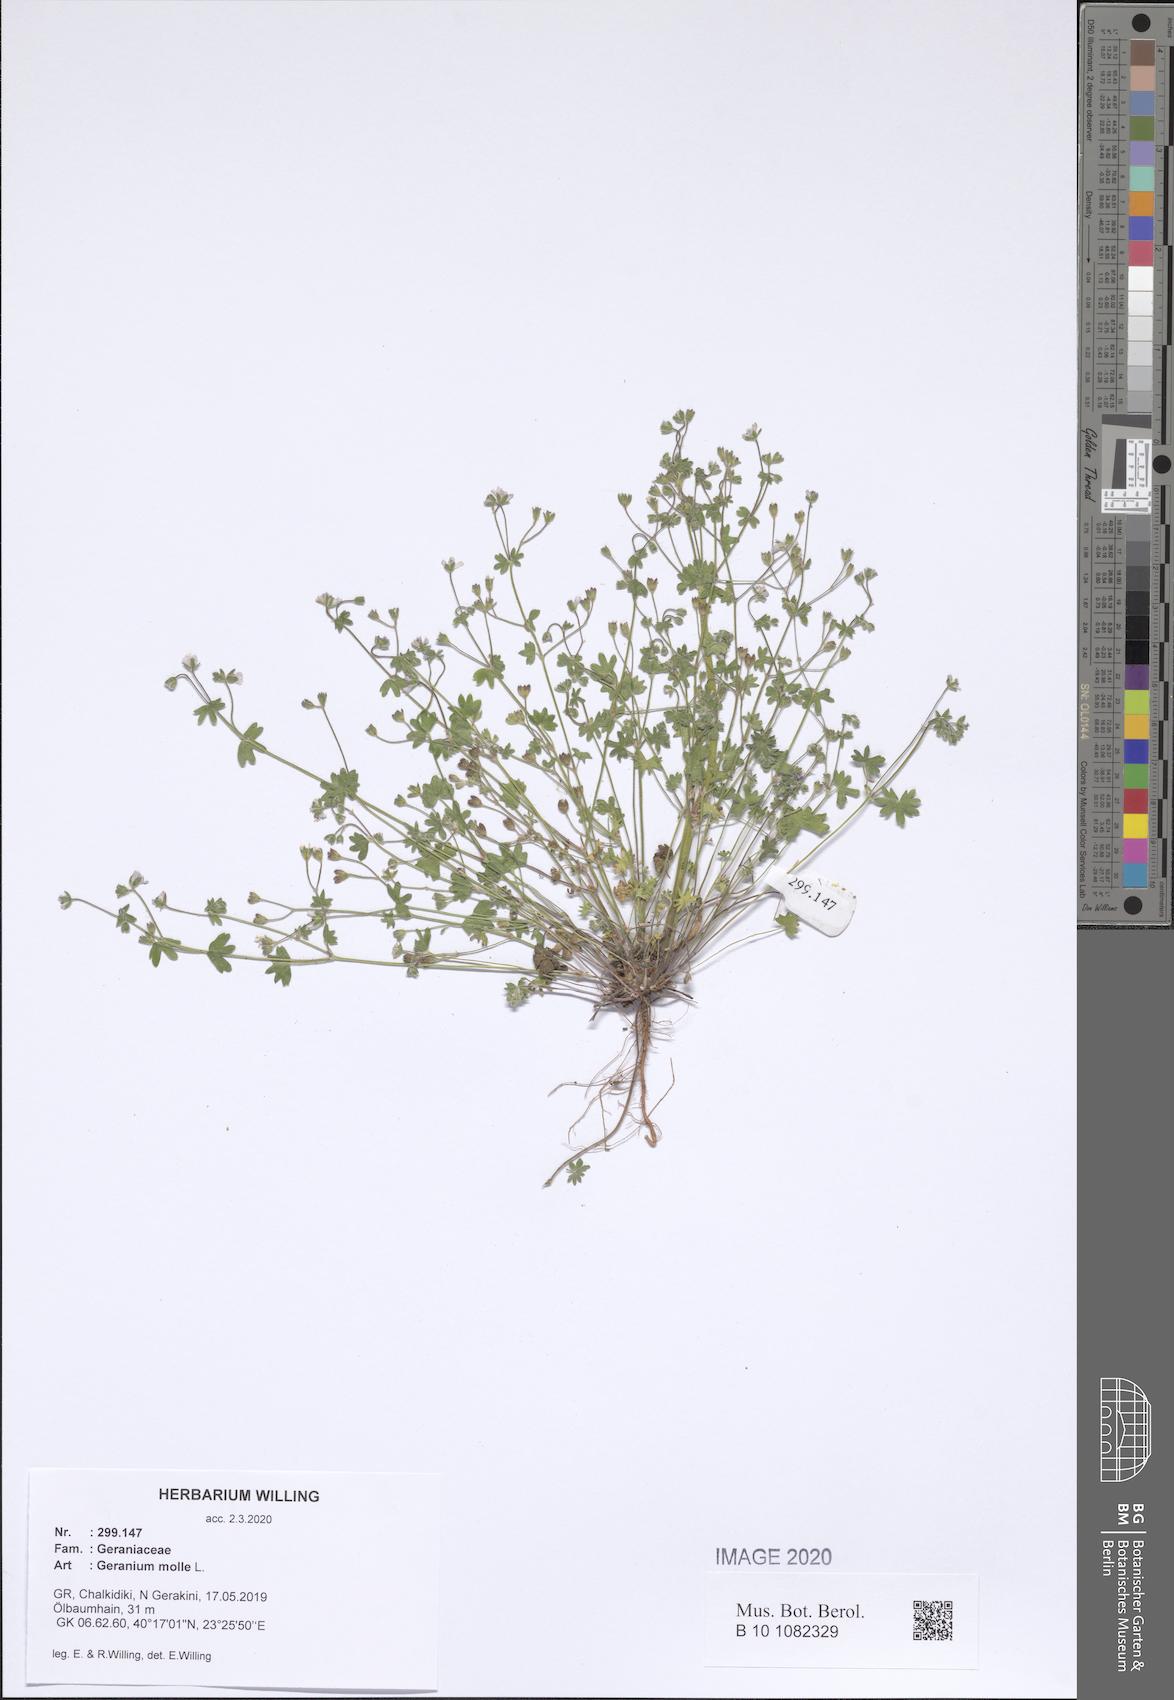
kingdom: Plantae
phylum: Tracheophyta
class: Magnoliopsida
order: Geraniales
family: Geraniaceae
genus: Geranium
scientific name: Geranium molle
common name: Dove's-foot crane's-bill
